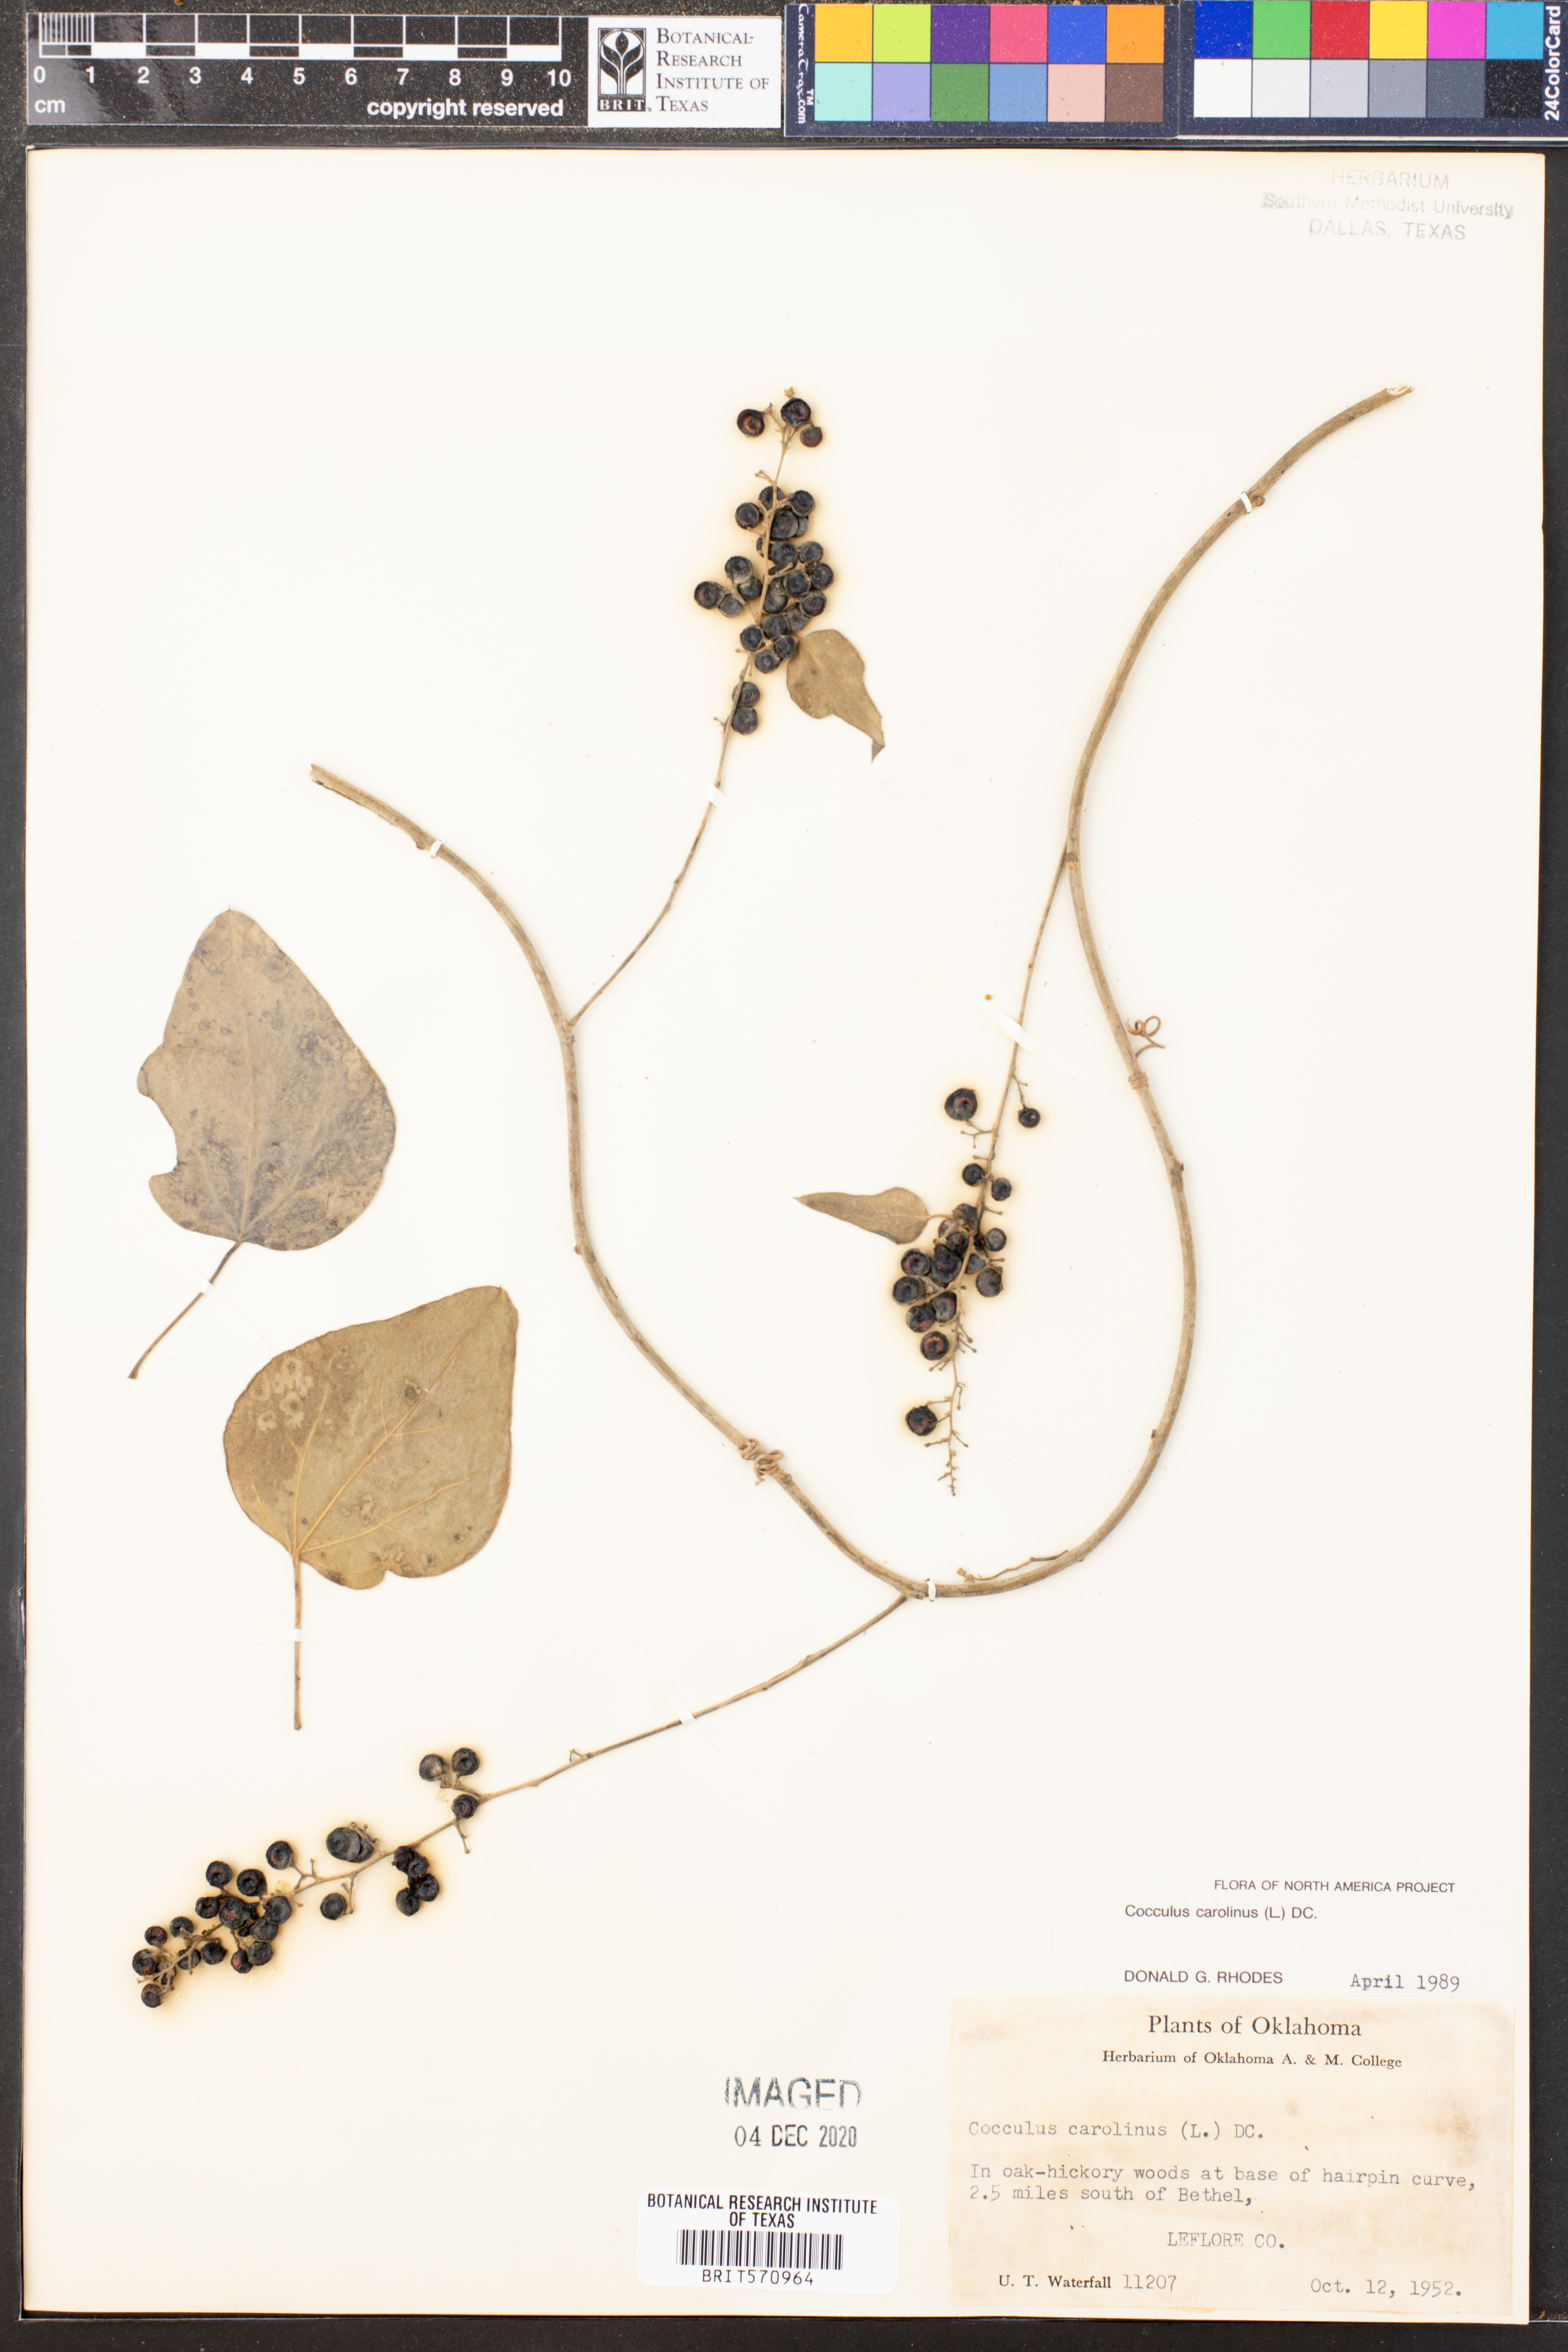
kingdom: Plantae
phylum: Tracheophyta
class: Magnoliopsida
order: Ranunculales
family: Menispermaceae
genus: Cocculus
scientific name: Cocculus carolinus
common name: Carolina moonseed
